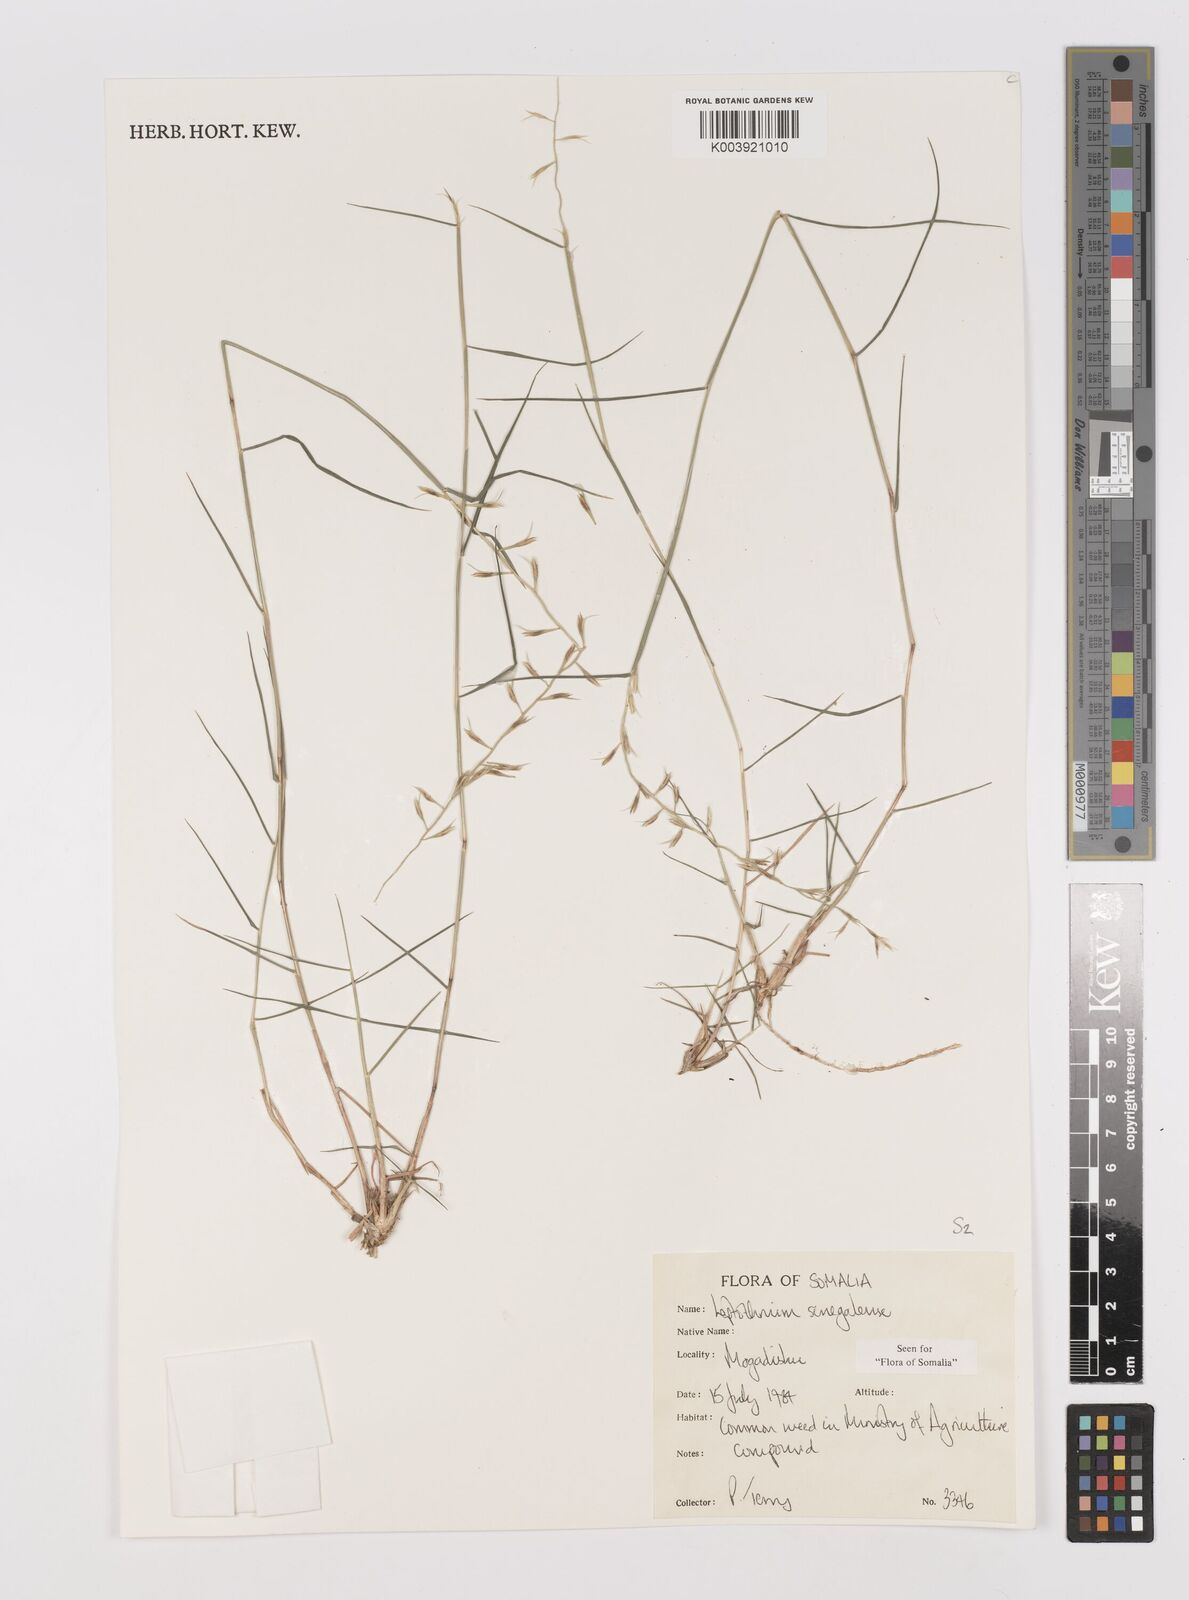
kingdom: Plantae
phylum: Tracheophyta
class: Liliopsida
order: Poales
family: Poaceae
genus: Leptothrium
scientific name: Leptothrium senegalense
